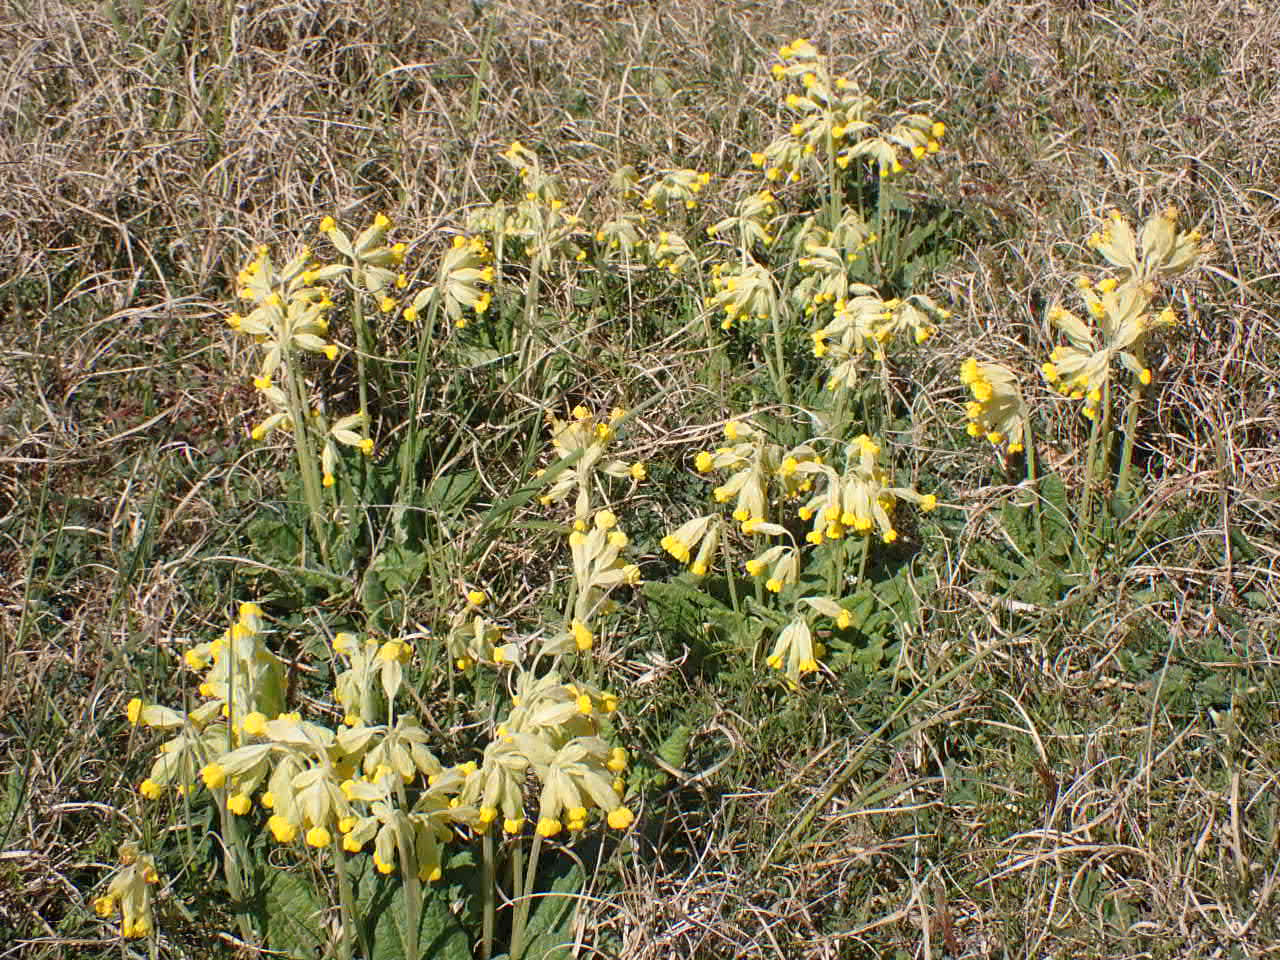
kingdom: Plantae
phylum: Tracheophyta
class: Magnoliopsida
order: Ericales
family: Primulaceae
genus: Primula
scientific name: Primula veris
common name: Hulkravet kodriver
